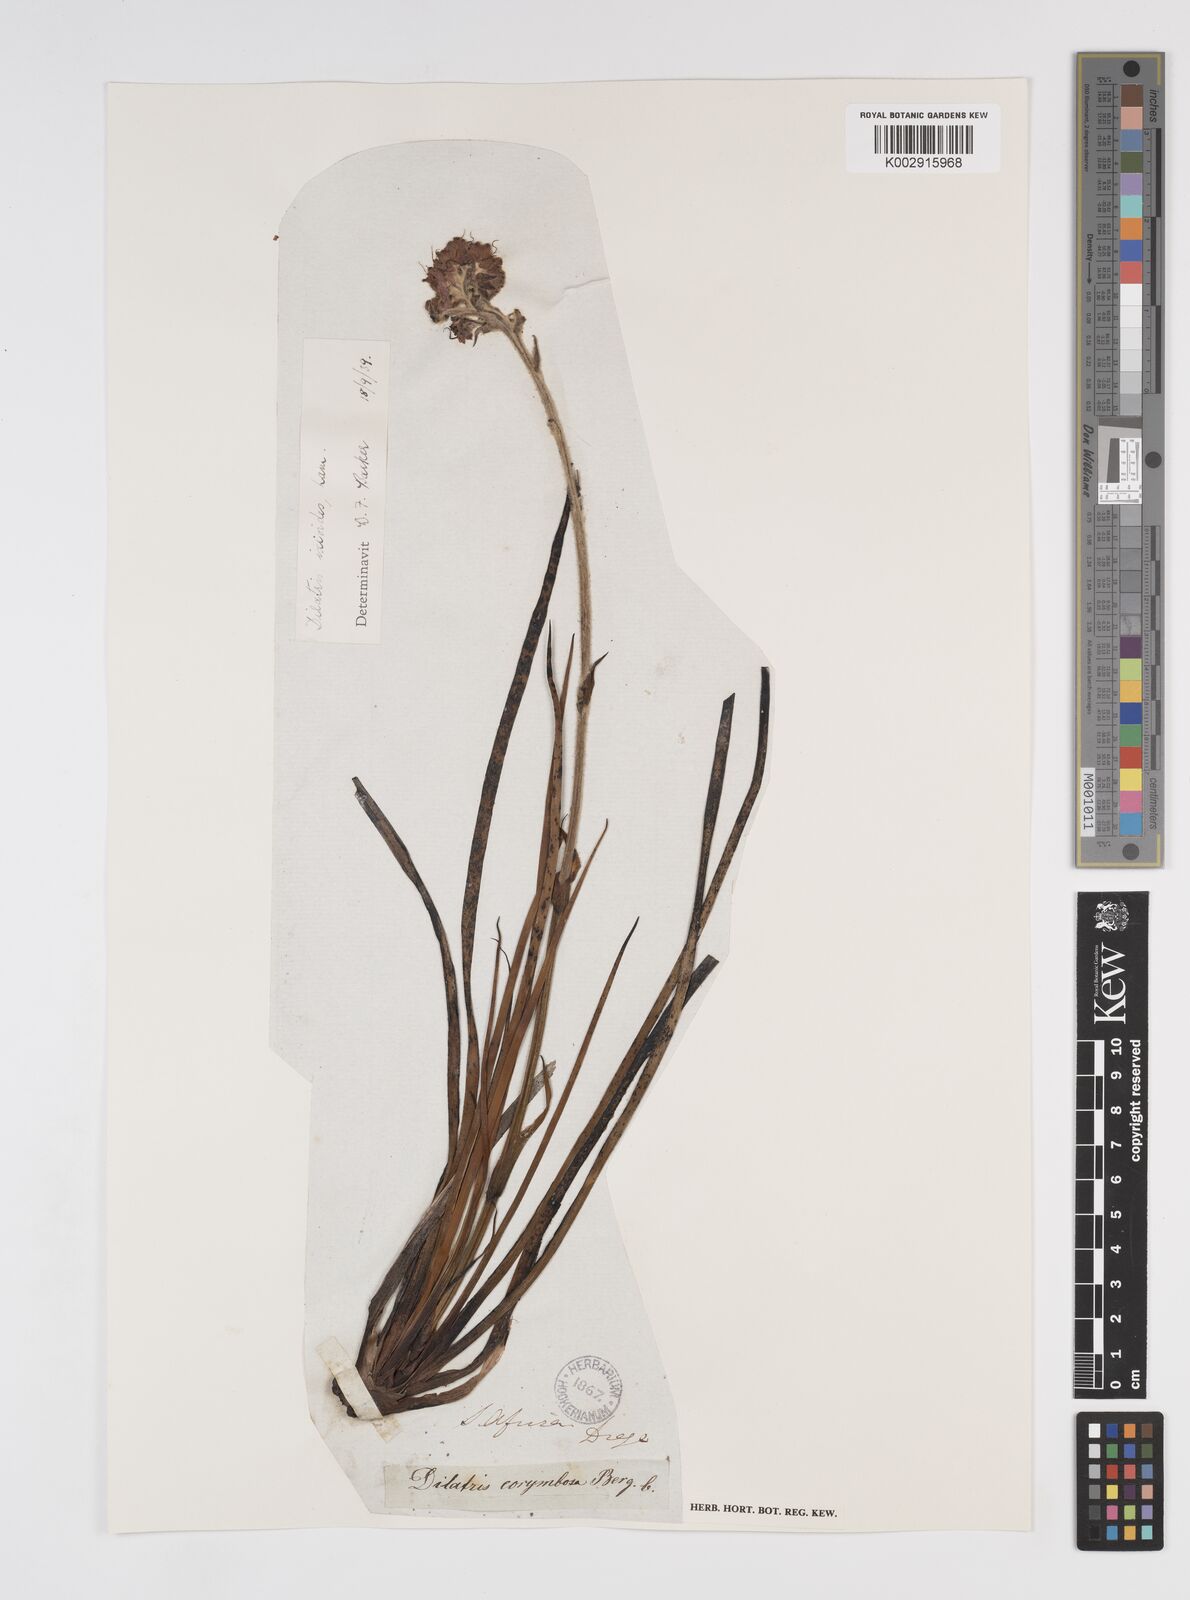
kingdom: Plantae
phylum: Tracheophyta
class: Liliopsida
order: Commelinales
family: Haemodoraceae
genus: Dilatris
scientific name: Dilatris ixioides
